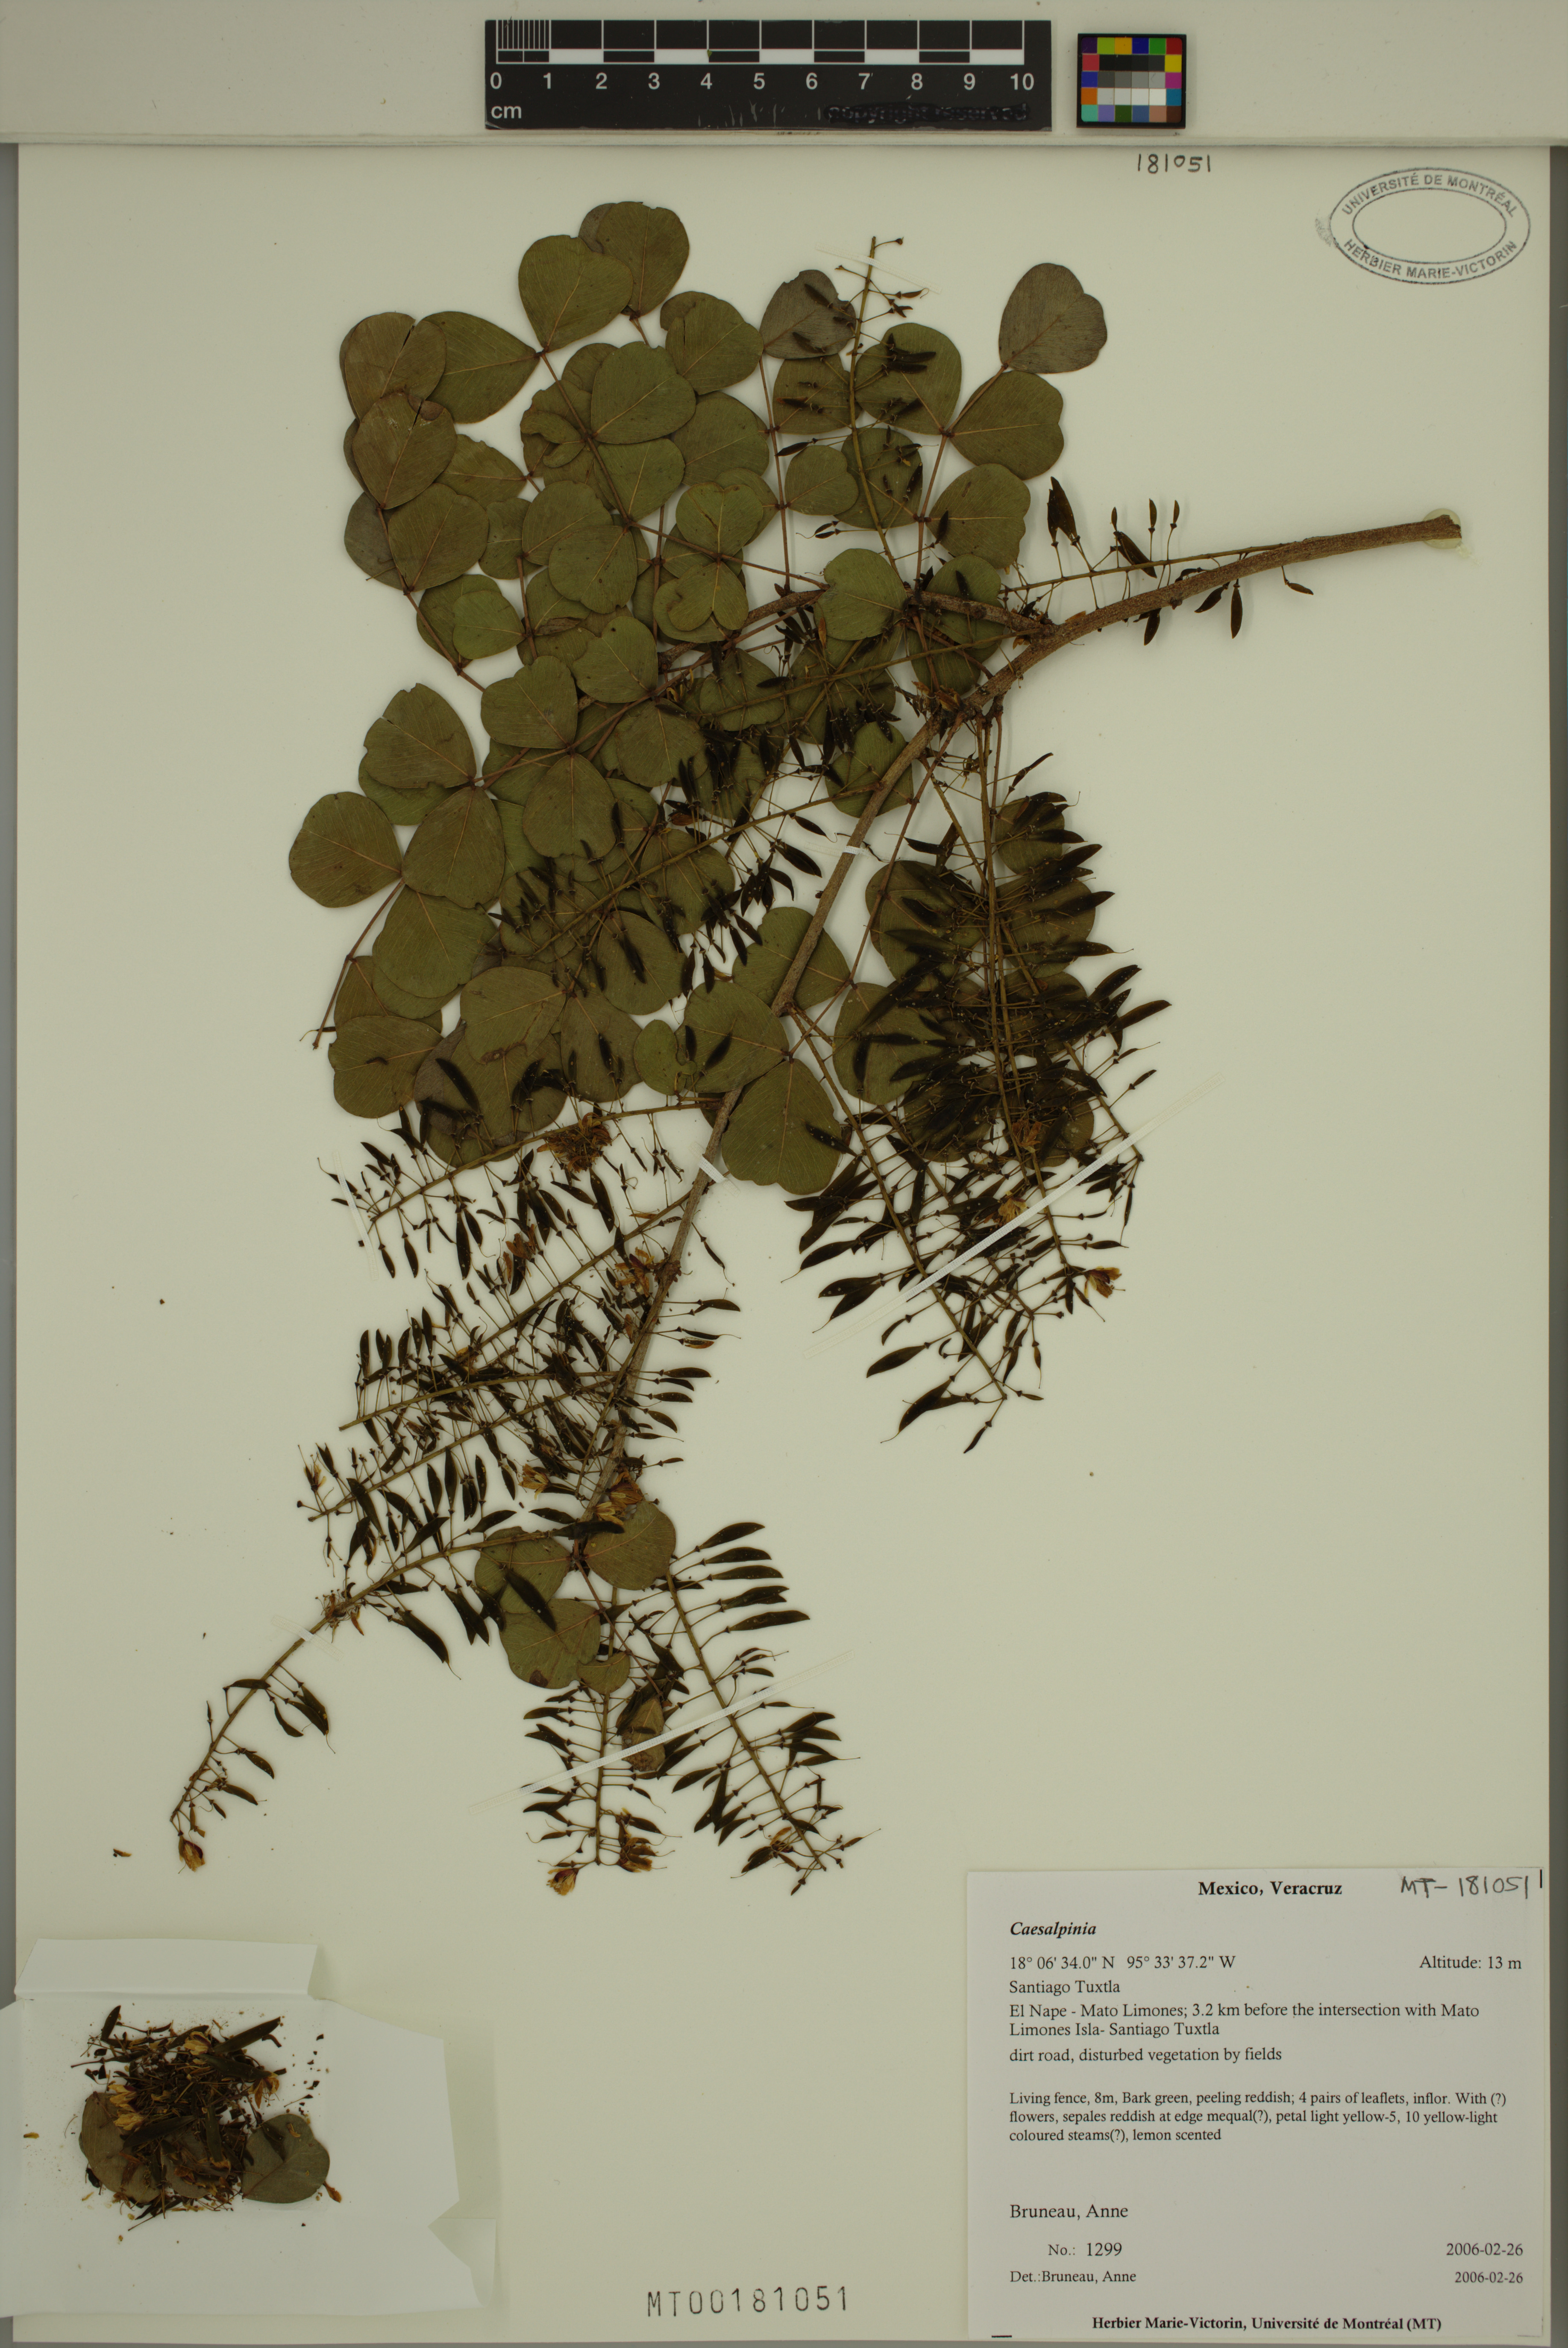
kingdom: Plantae
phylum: Tracheophyta
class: Magnoliopsida
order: Fabales
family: Fabaceae
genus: Caesalpinia
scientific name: Caesalpinia
